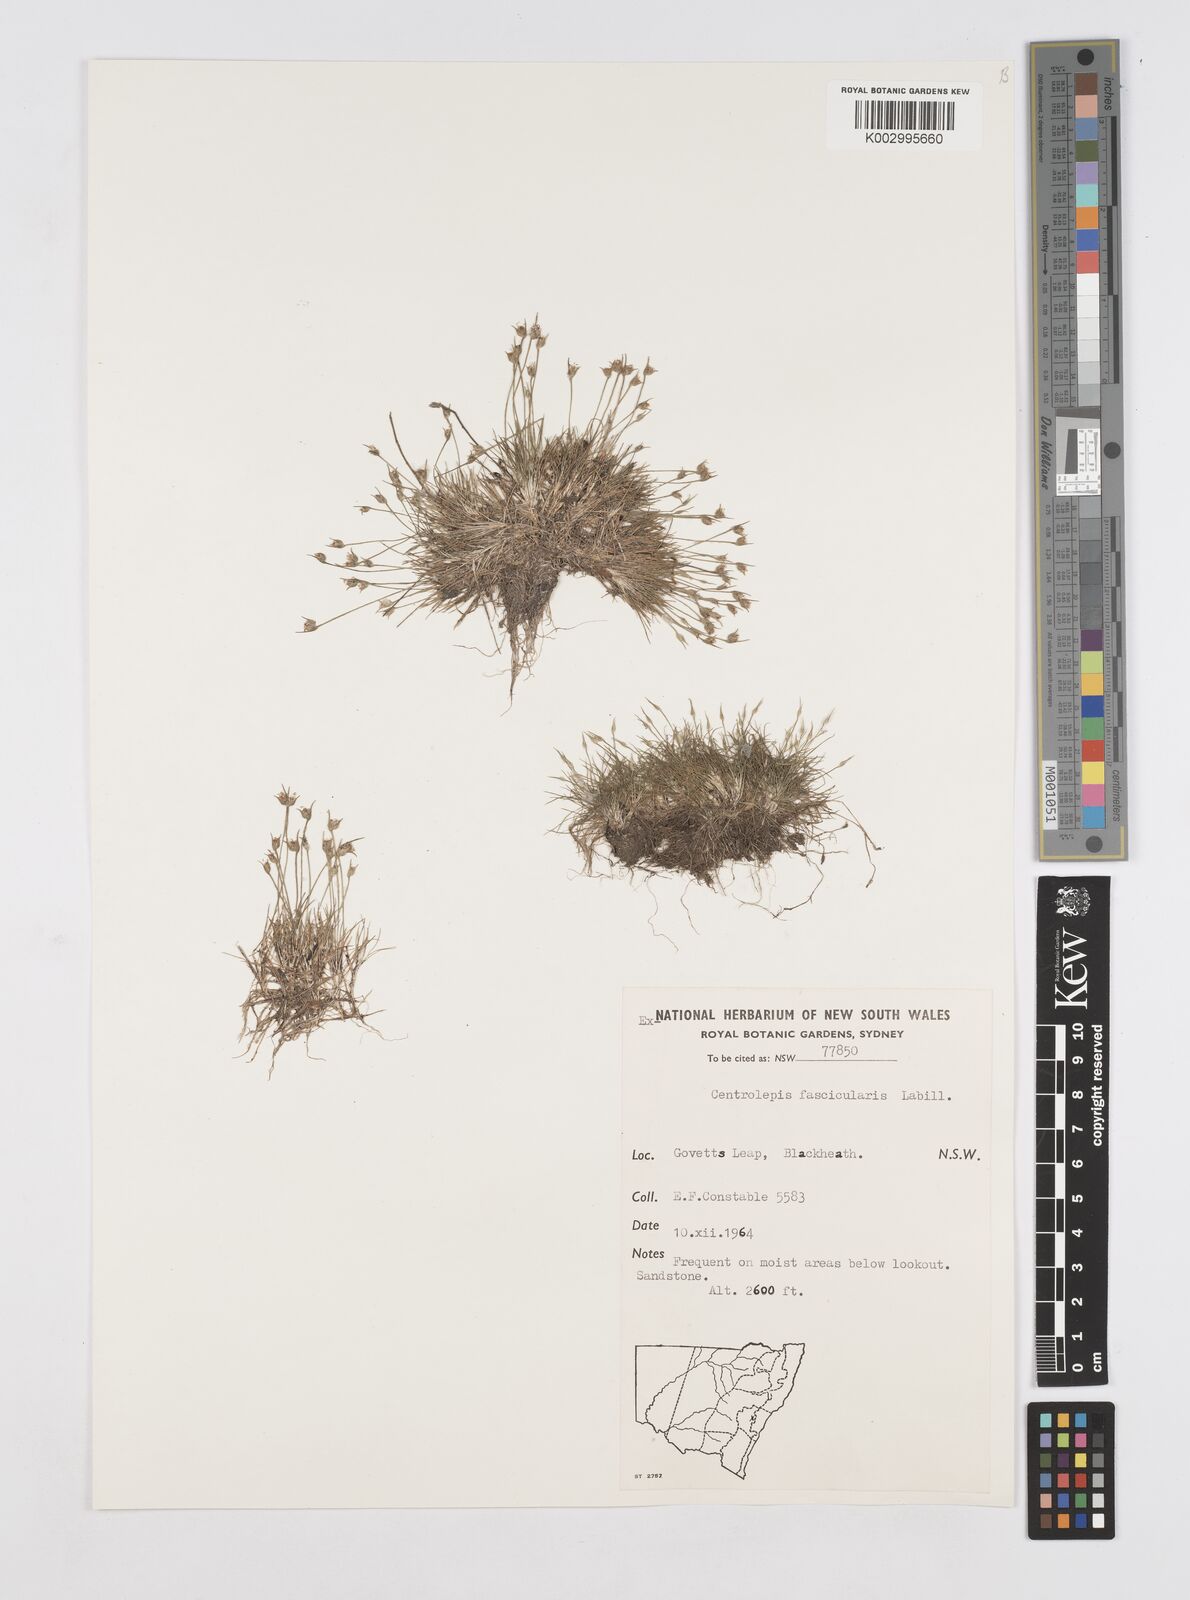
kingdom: Plantae
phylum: Tracheophyta
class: Liliopsida
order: Poales
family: Restionaceae
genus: Centrolepis
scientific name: Centrolepis fascicularis
